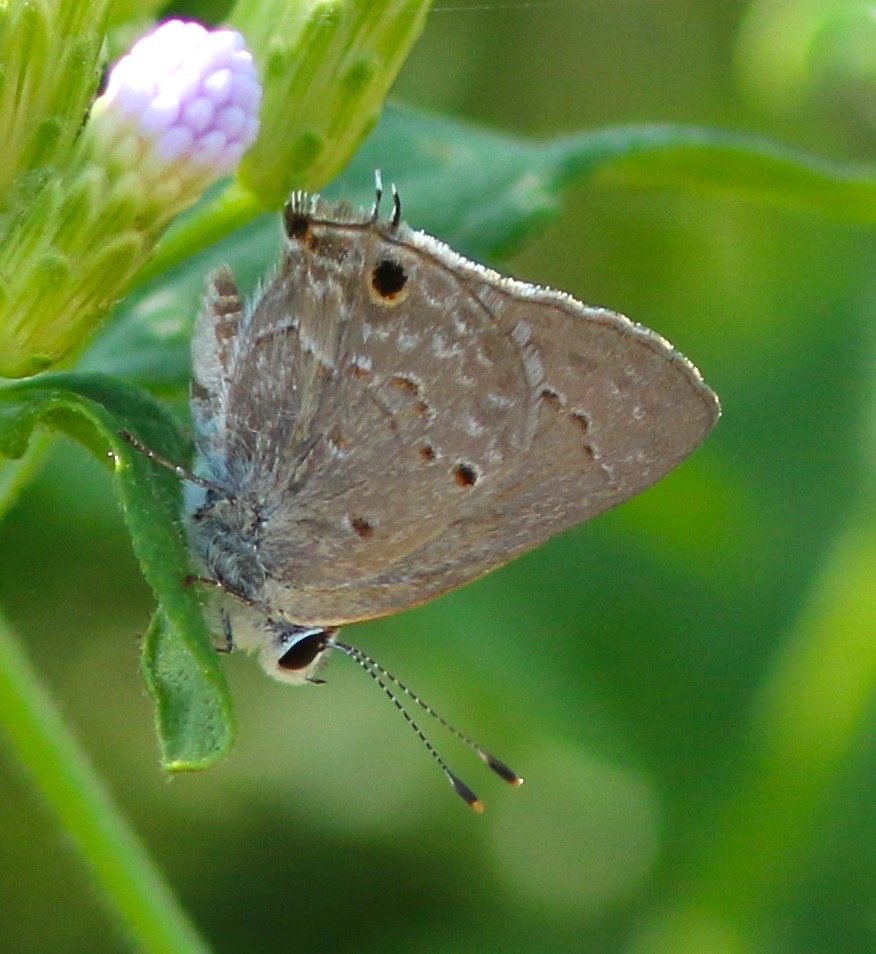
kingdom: Animalia
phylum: Arthropoda
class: Insecta
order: Lepidoptera
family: Lycaenidae
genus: Callicista
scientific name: Callicista columella
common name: Mallow Scrub-Hairstreak
